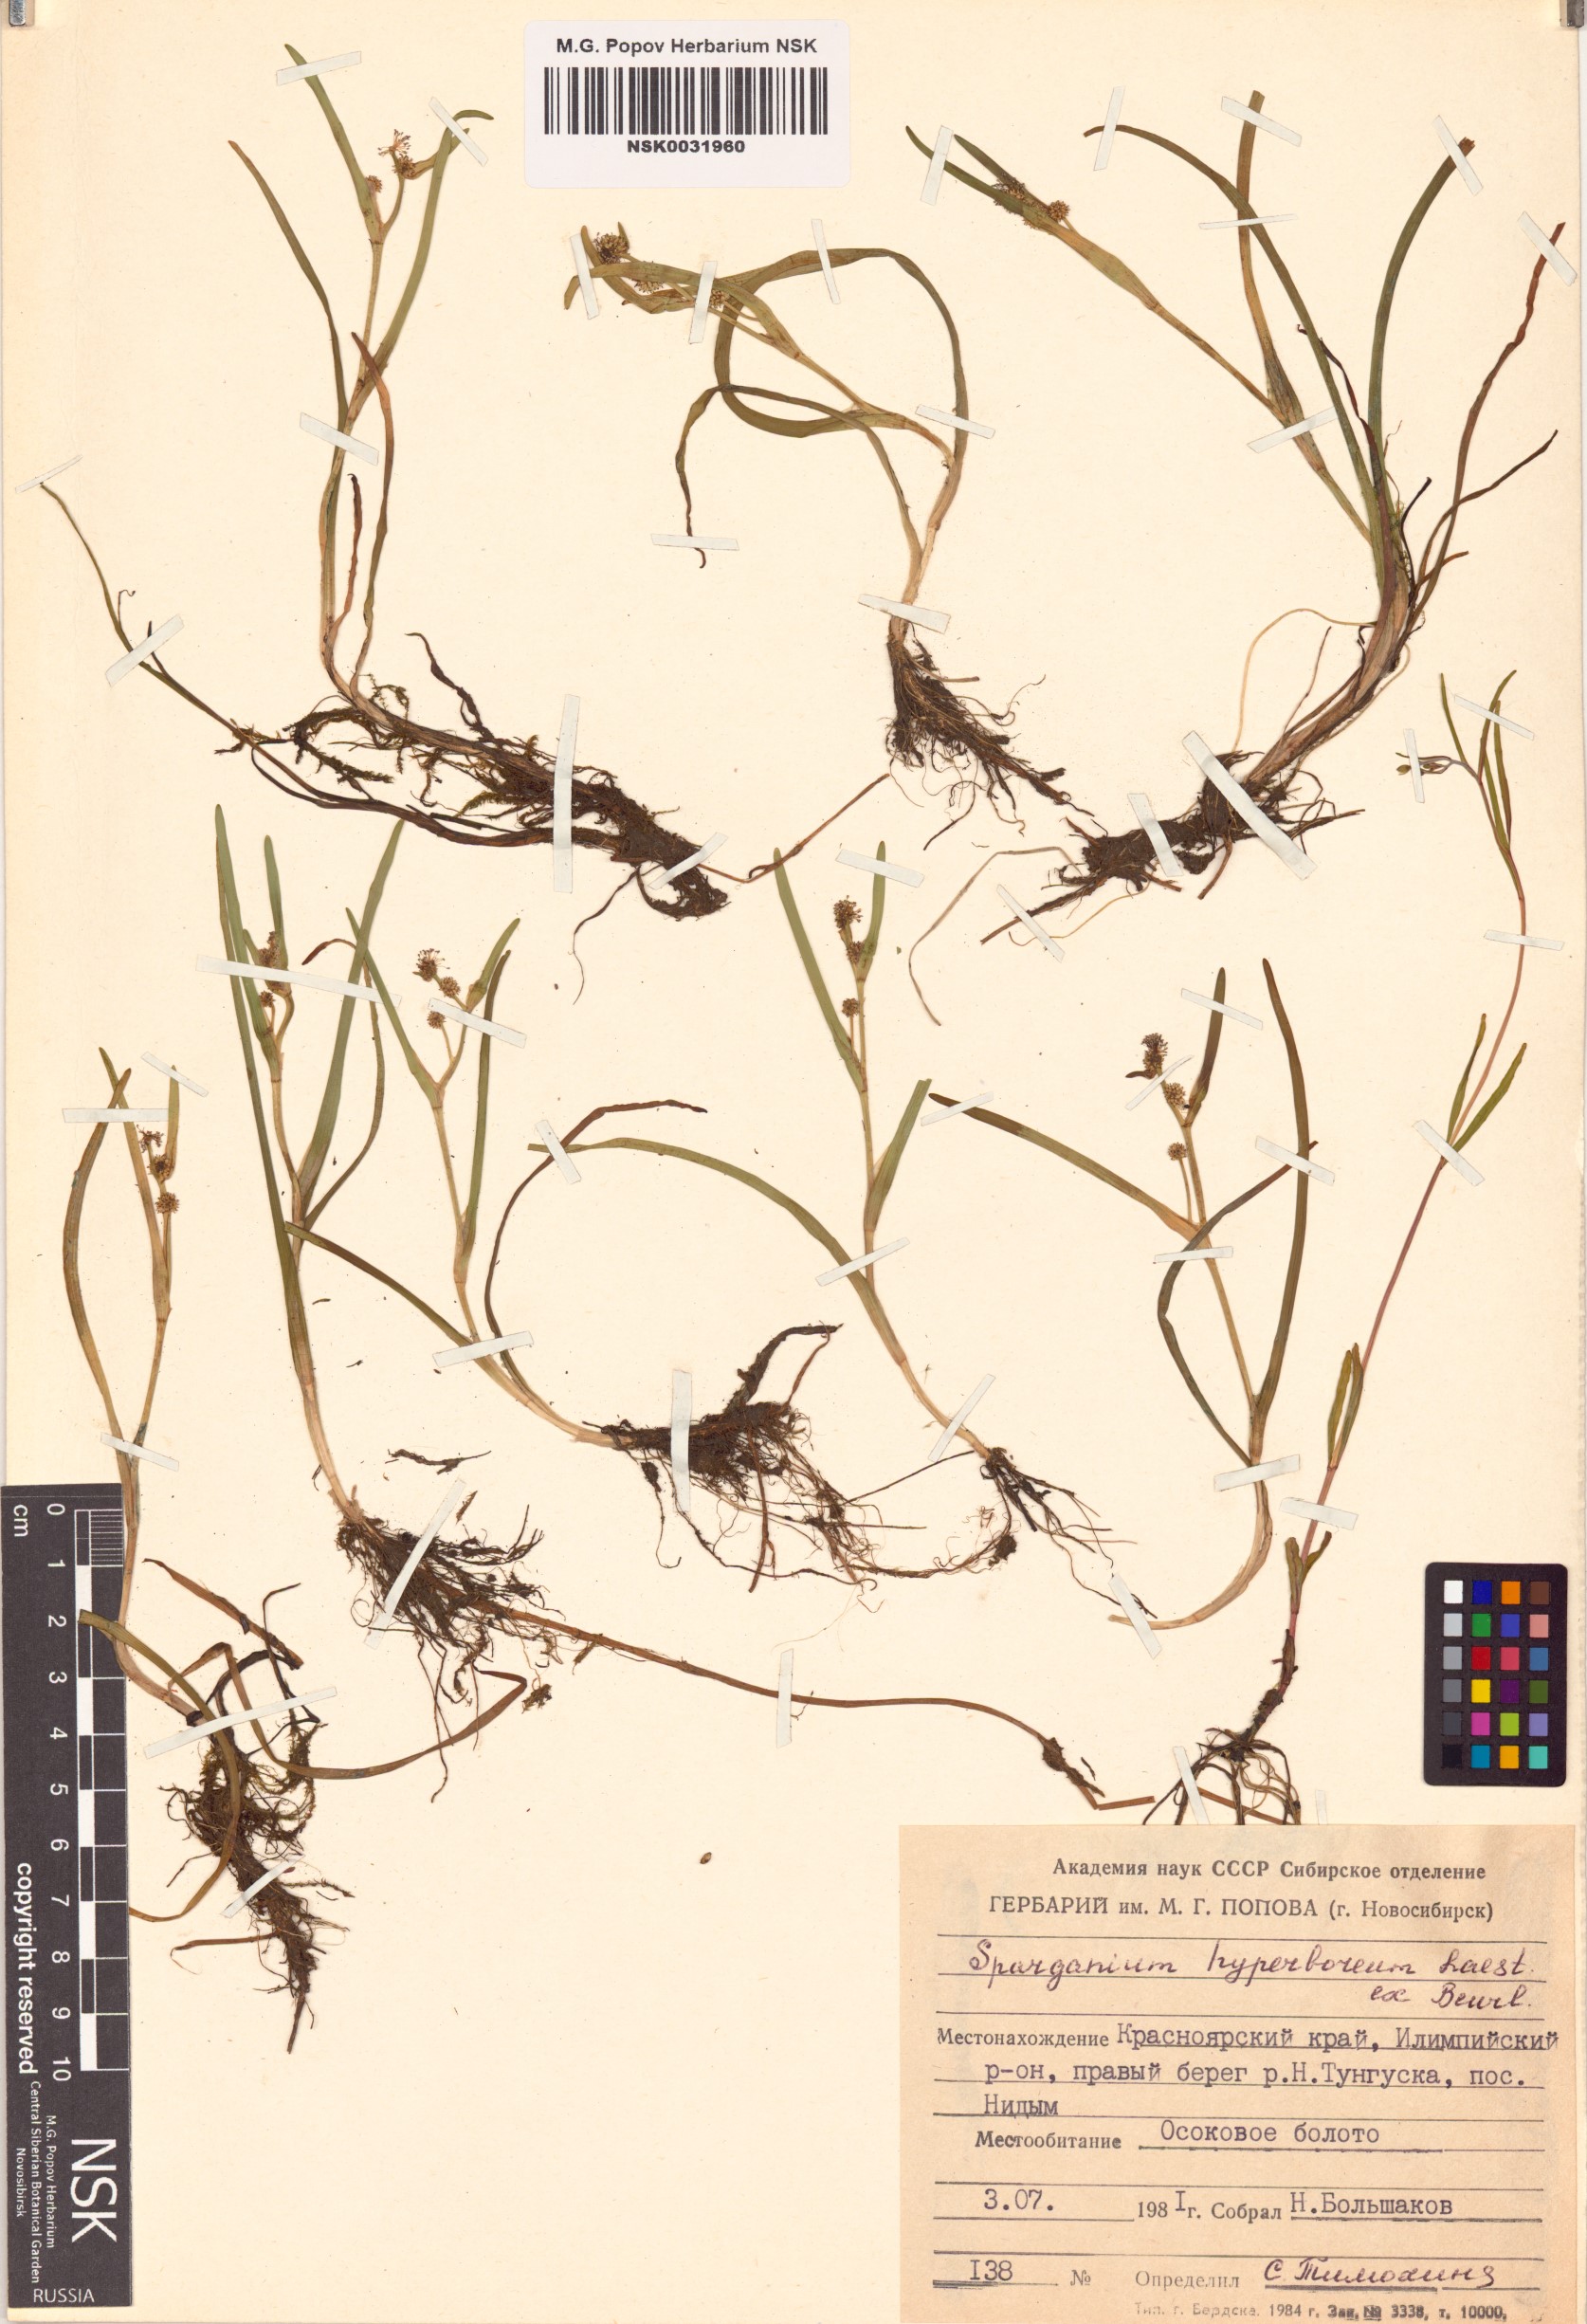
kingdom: Plantae
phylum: Tracheophyta
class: Liliopsida
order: Poales
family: Typhaceae
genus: Sparganium
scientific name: Sparganium hyperboreum
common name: Arctic burreed
